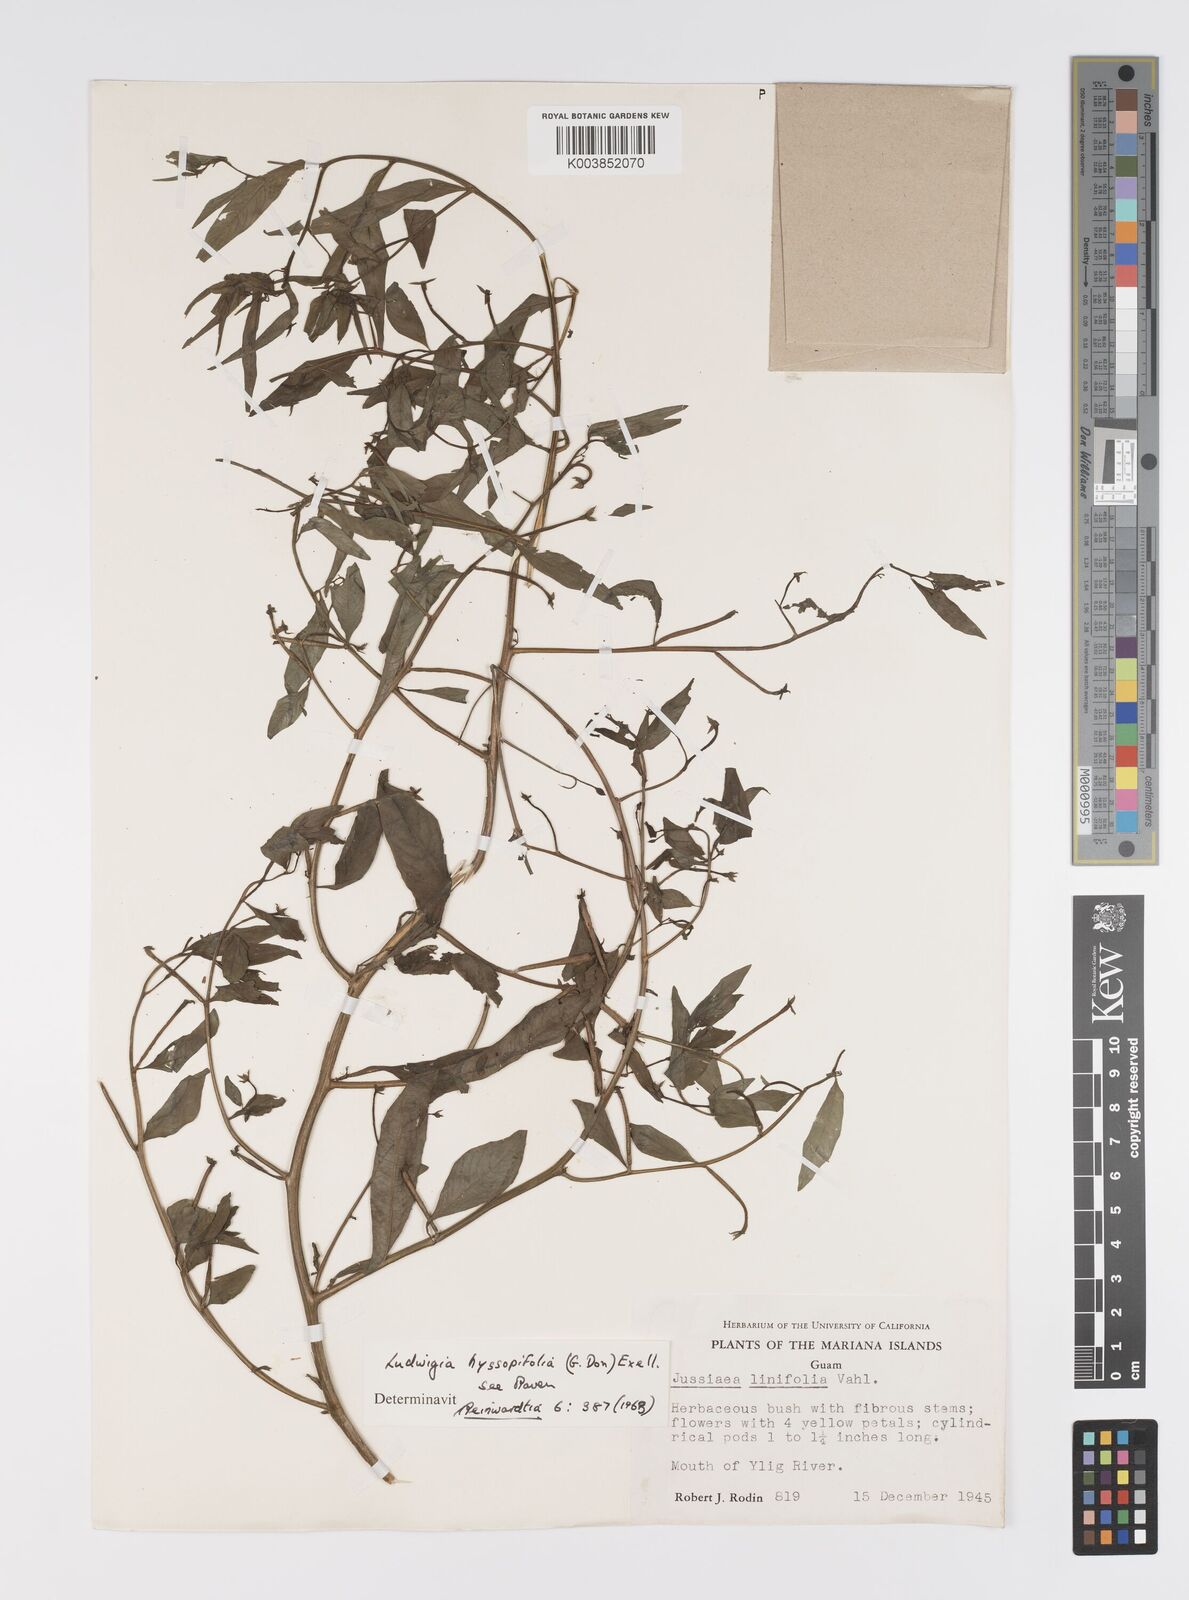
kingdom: Plantae
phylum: Tracheophyta
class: Magnoliopsida
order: Myrtales
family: Onagraceae
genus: Ludwigia
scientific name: Ludwigia hyssopifolia
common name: Linear leaf water primrose
